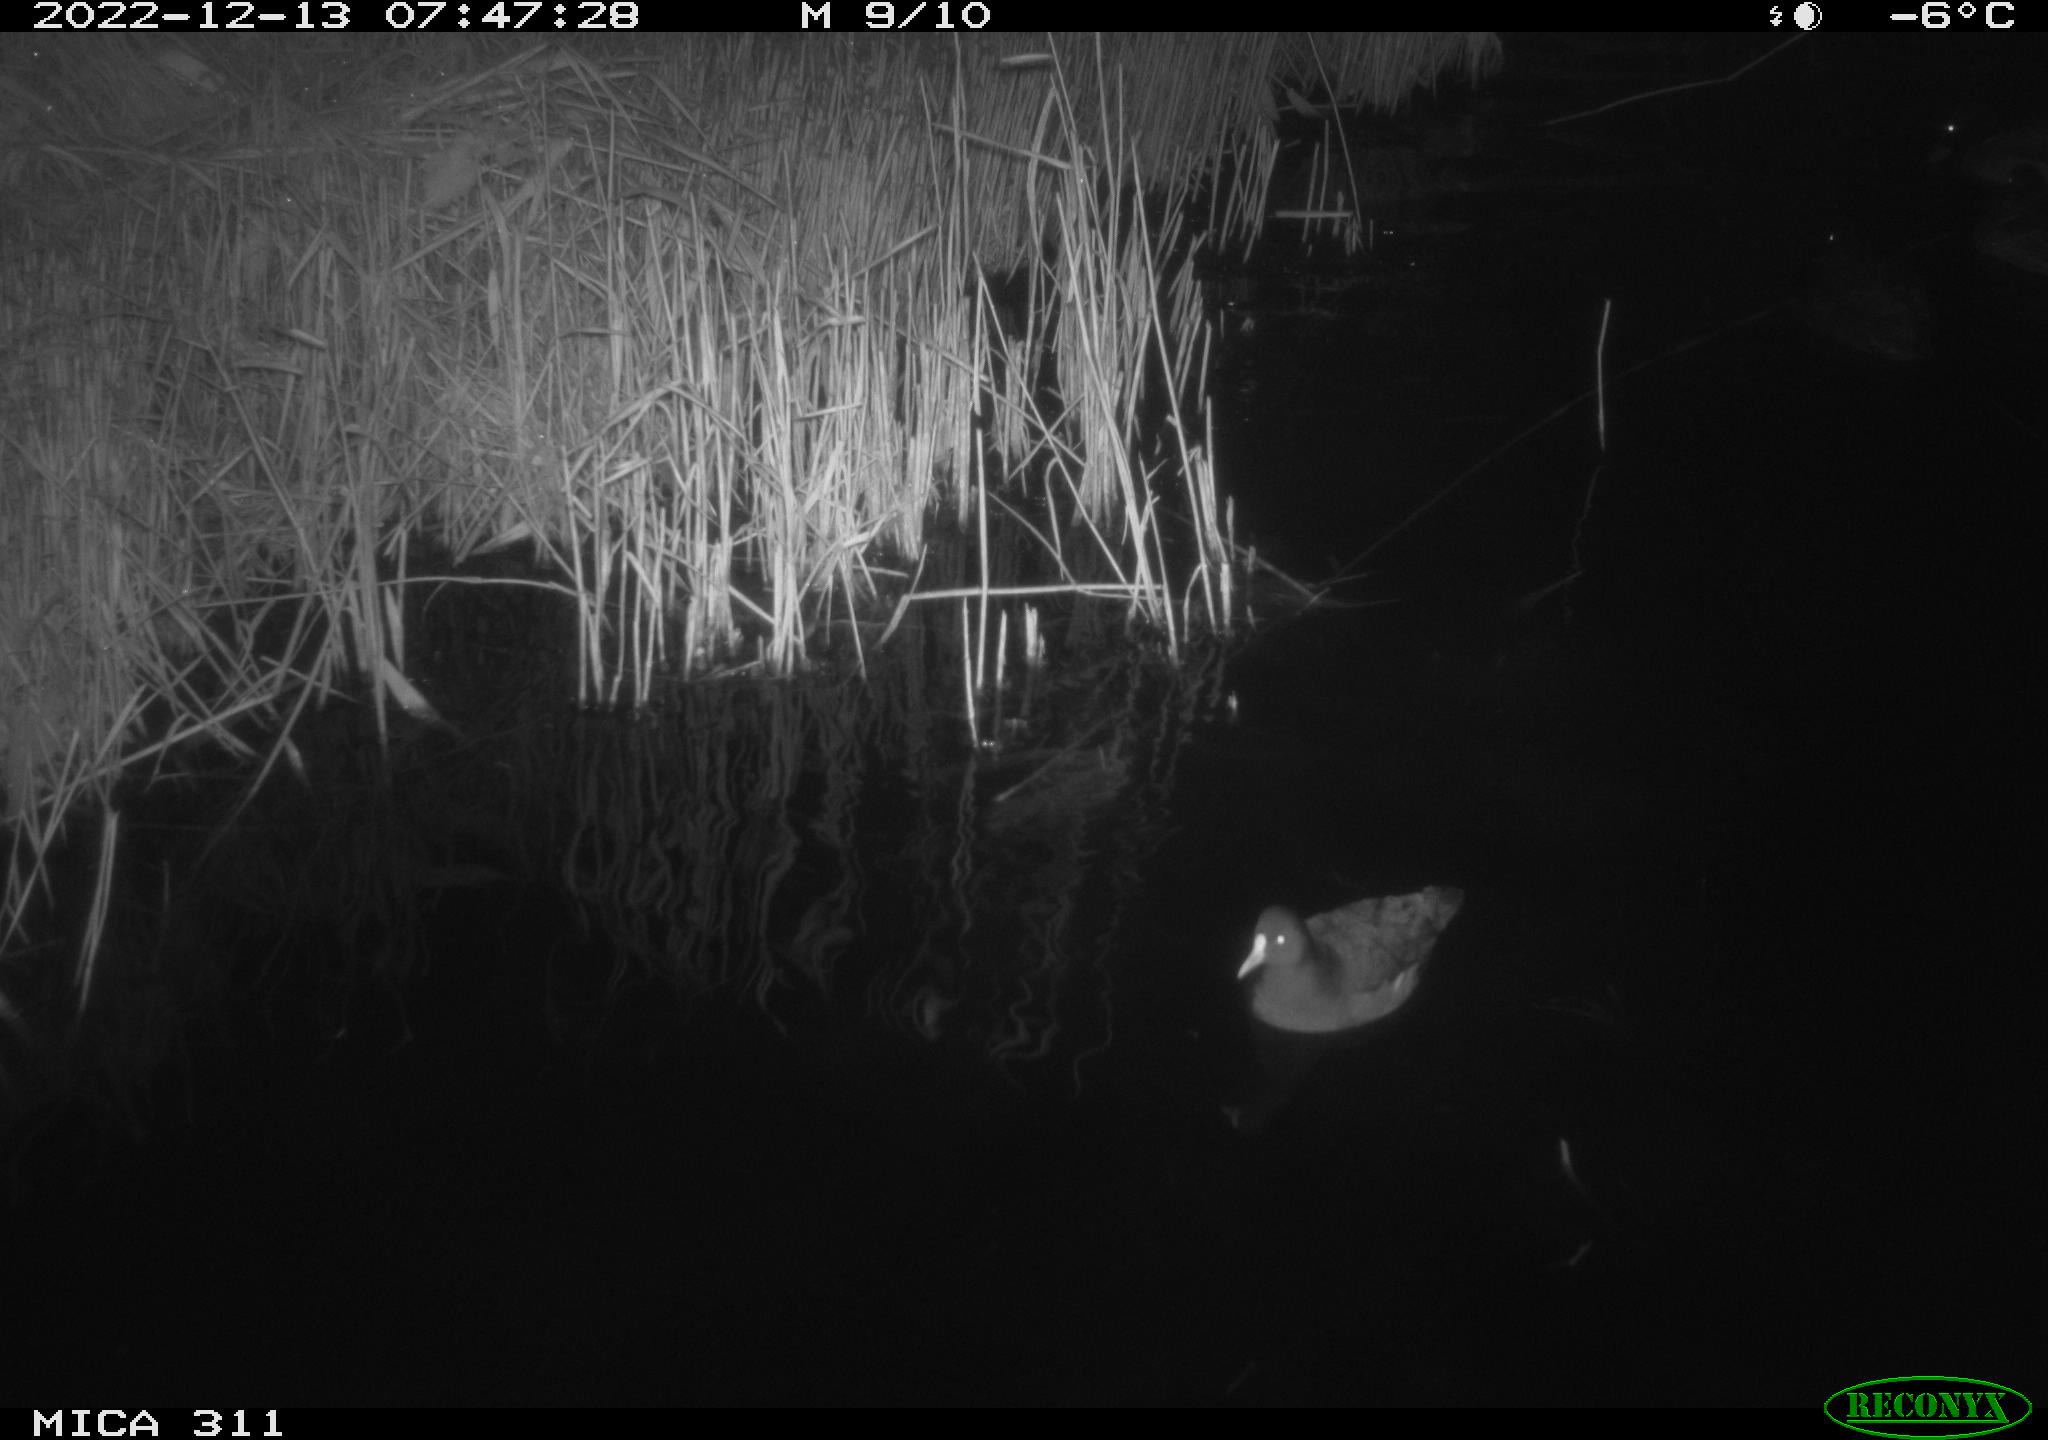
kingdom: Animalia
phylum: Chordata
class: Aves
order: Anseriformes
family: Anatidae
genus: Anas
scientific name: Anas
